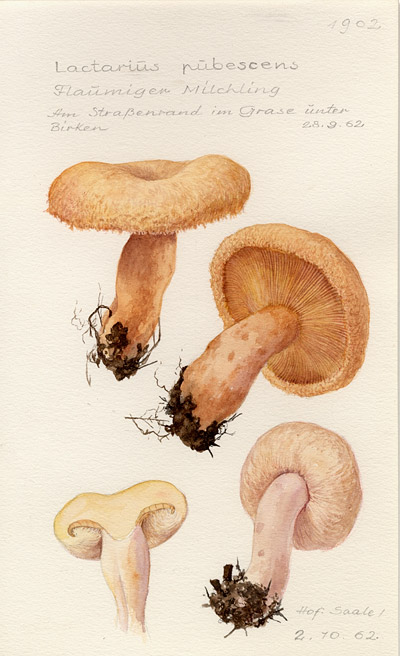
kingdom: Fungi
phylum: Basidiomycota
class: Agaricomycetes
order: Russulales
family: Russulaceae
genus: Lactarius
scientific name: Lactarius pubescens
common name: Bearded milkcap
